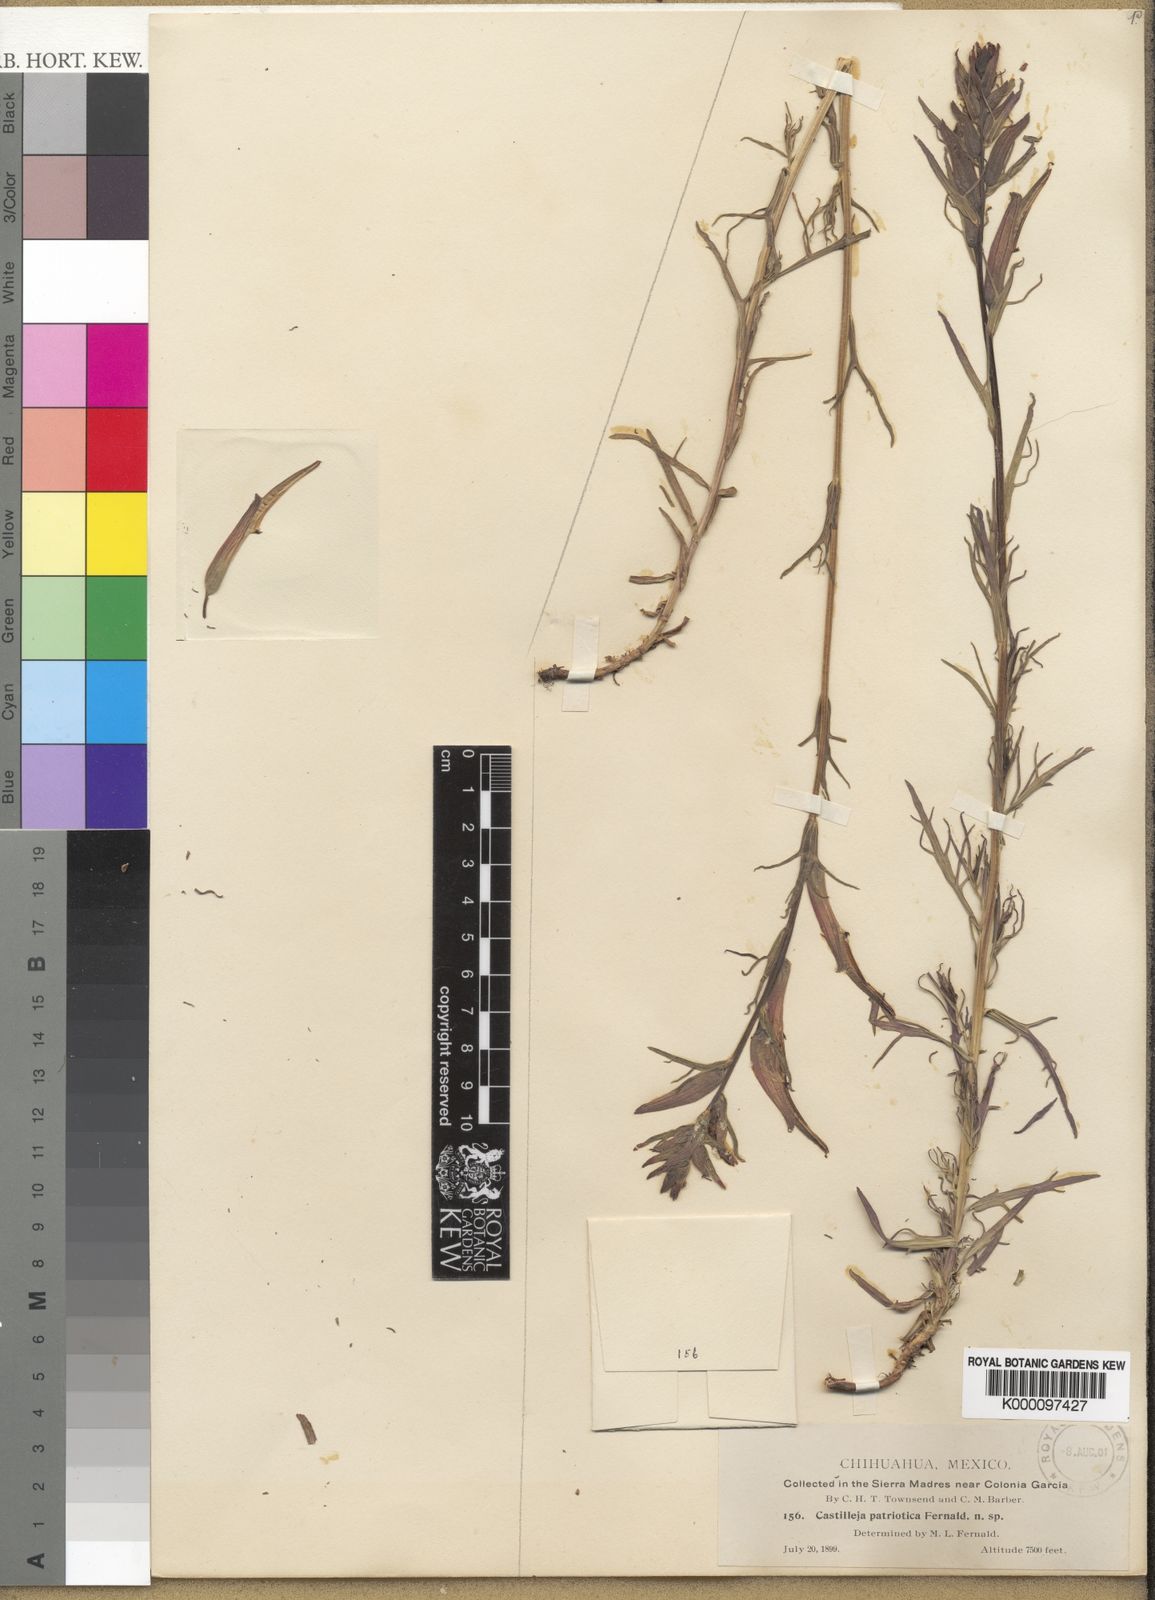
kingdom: Plantae
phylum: Tracheophyta
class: Magnoliopsida
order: Lamiales
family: Orobanchaceae
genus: Castilleja
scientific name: Castilleja patriotica
